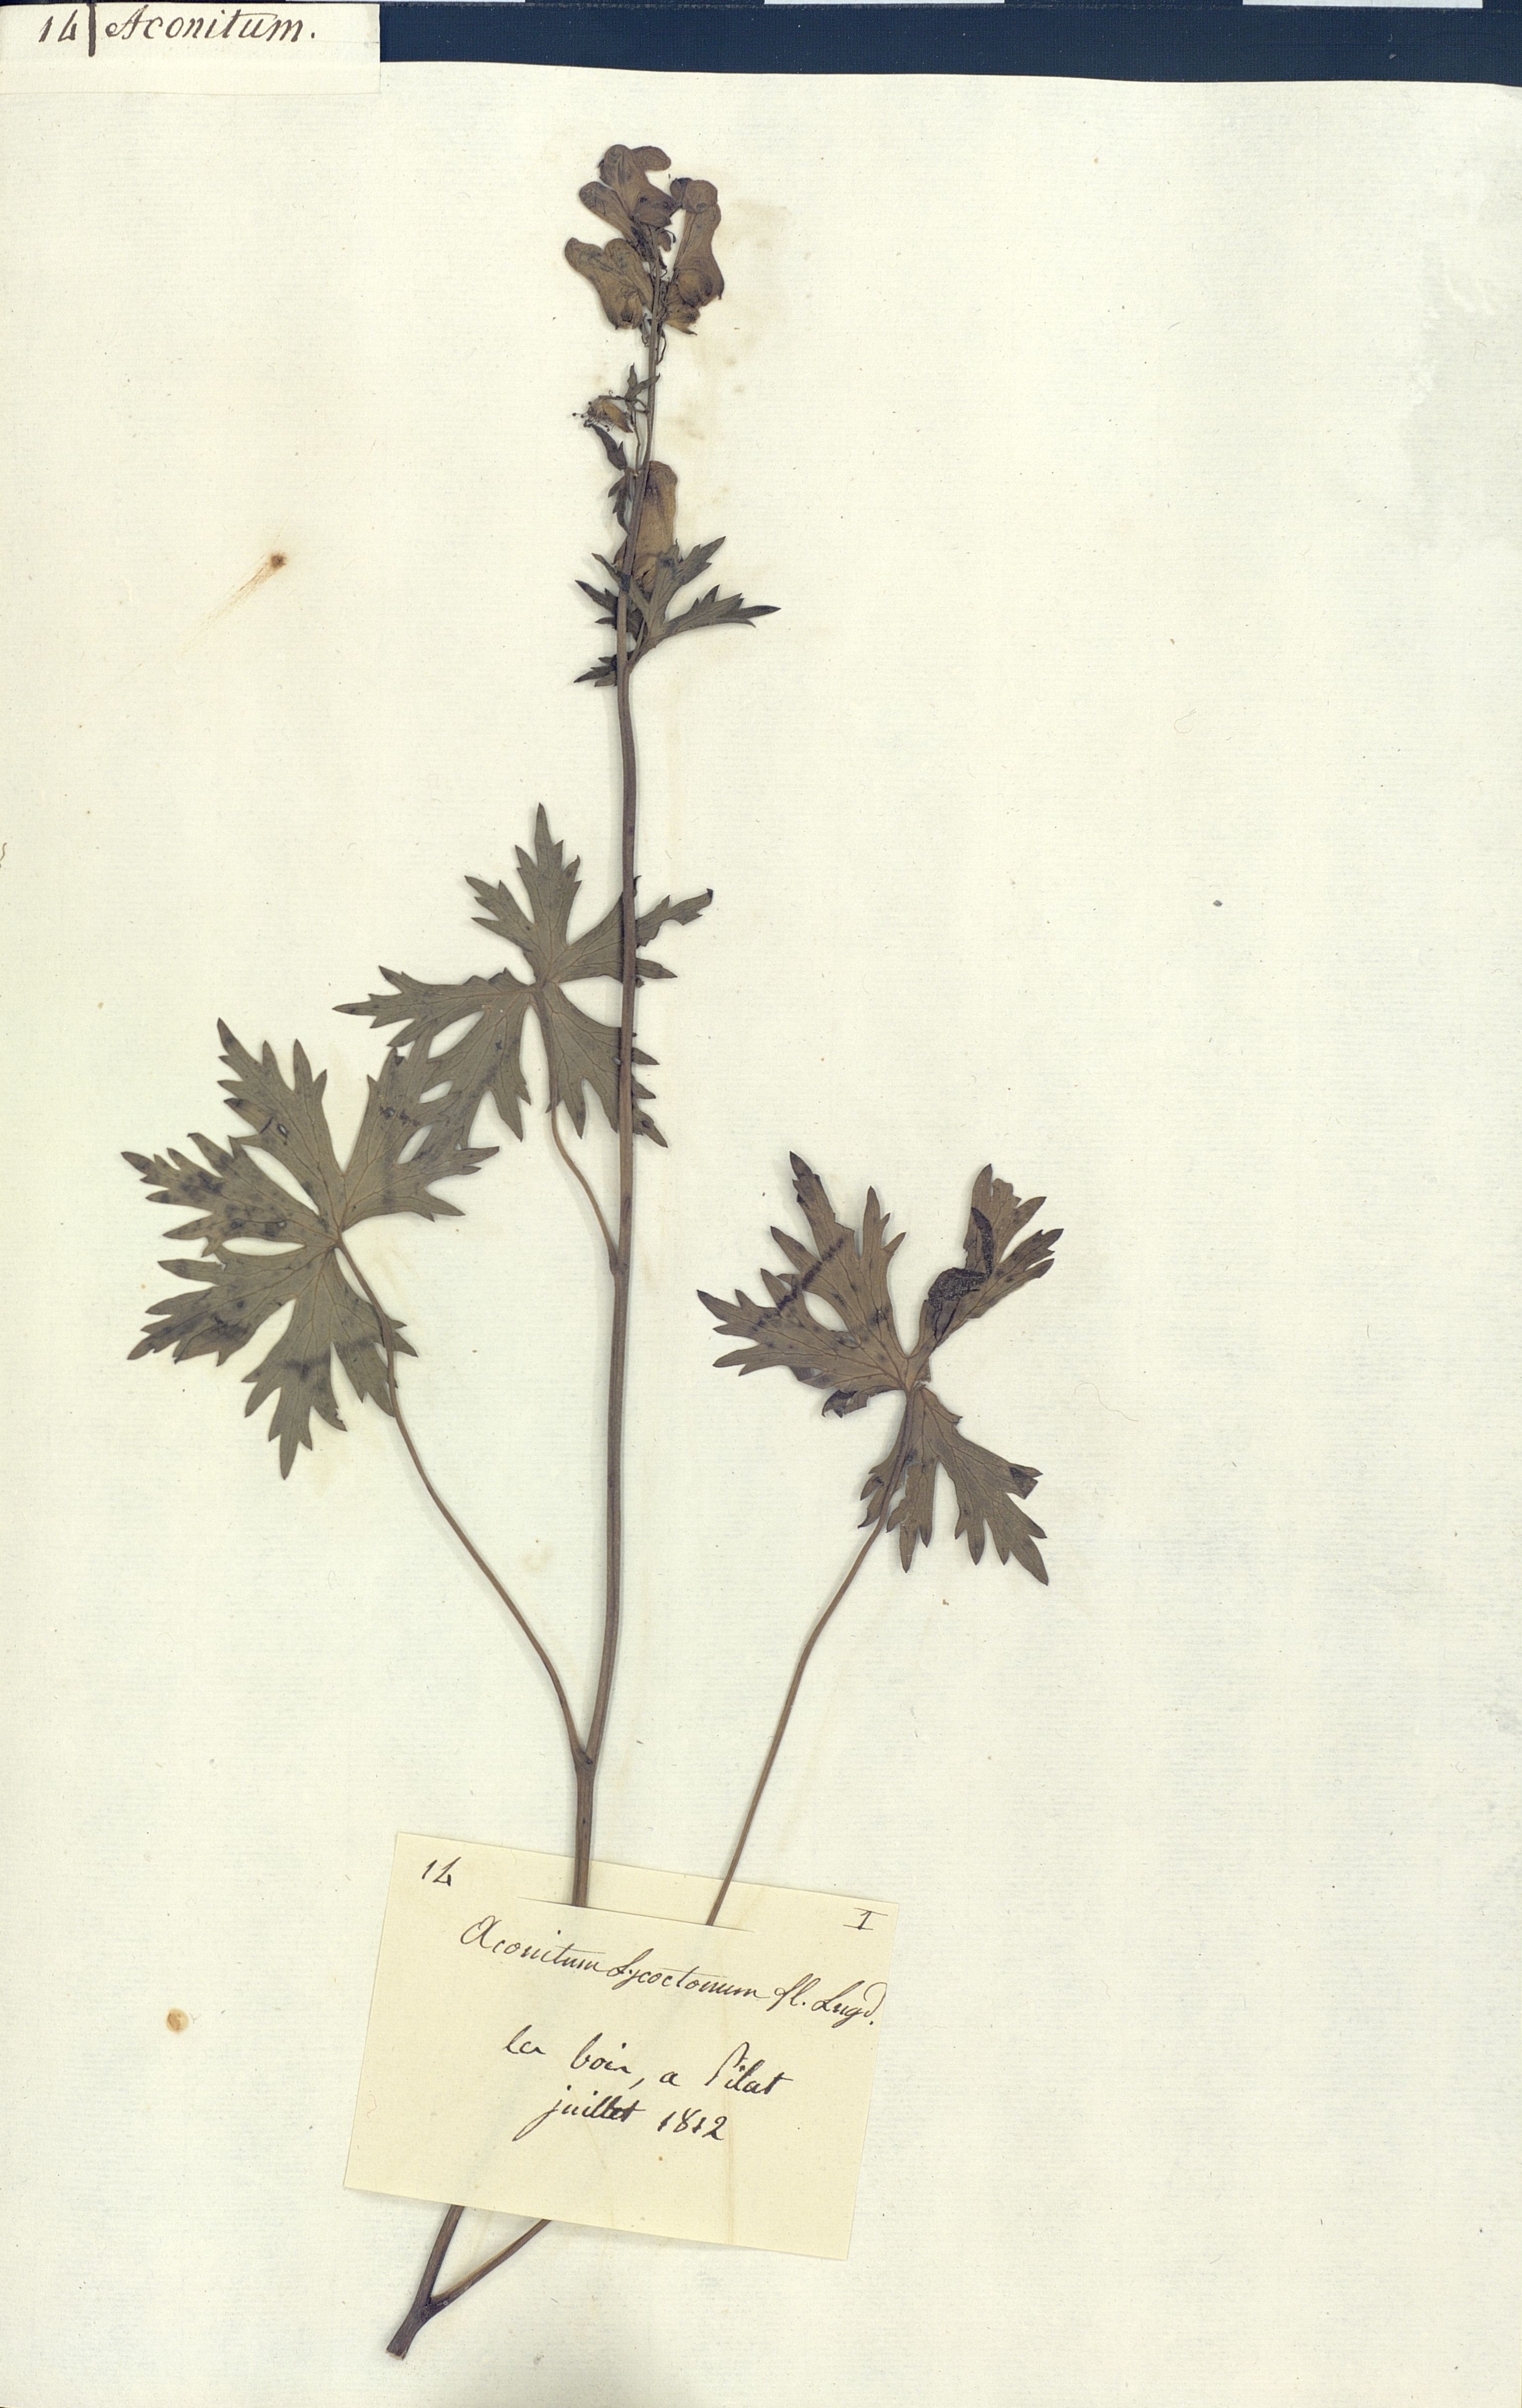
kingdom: Plantae
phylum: Tracheophyta
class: Magnoliopsida
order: Ranunculales
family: Ranunculaceae
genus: Aconitum
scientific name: Aconitum lycoctonum
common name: Wolf's-bane
